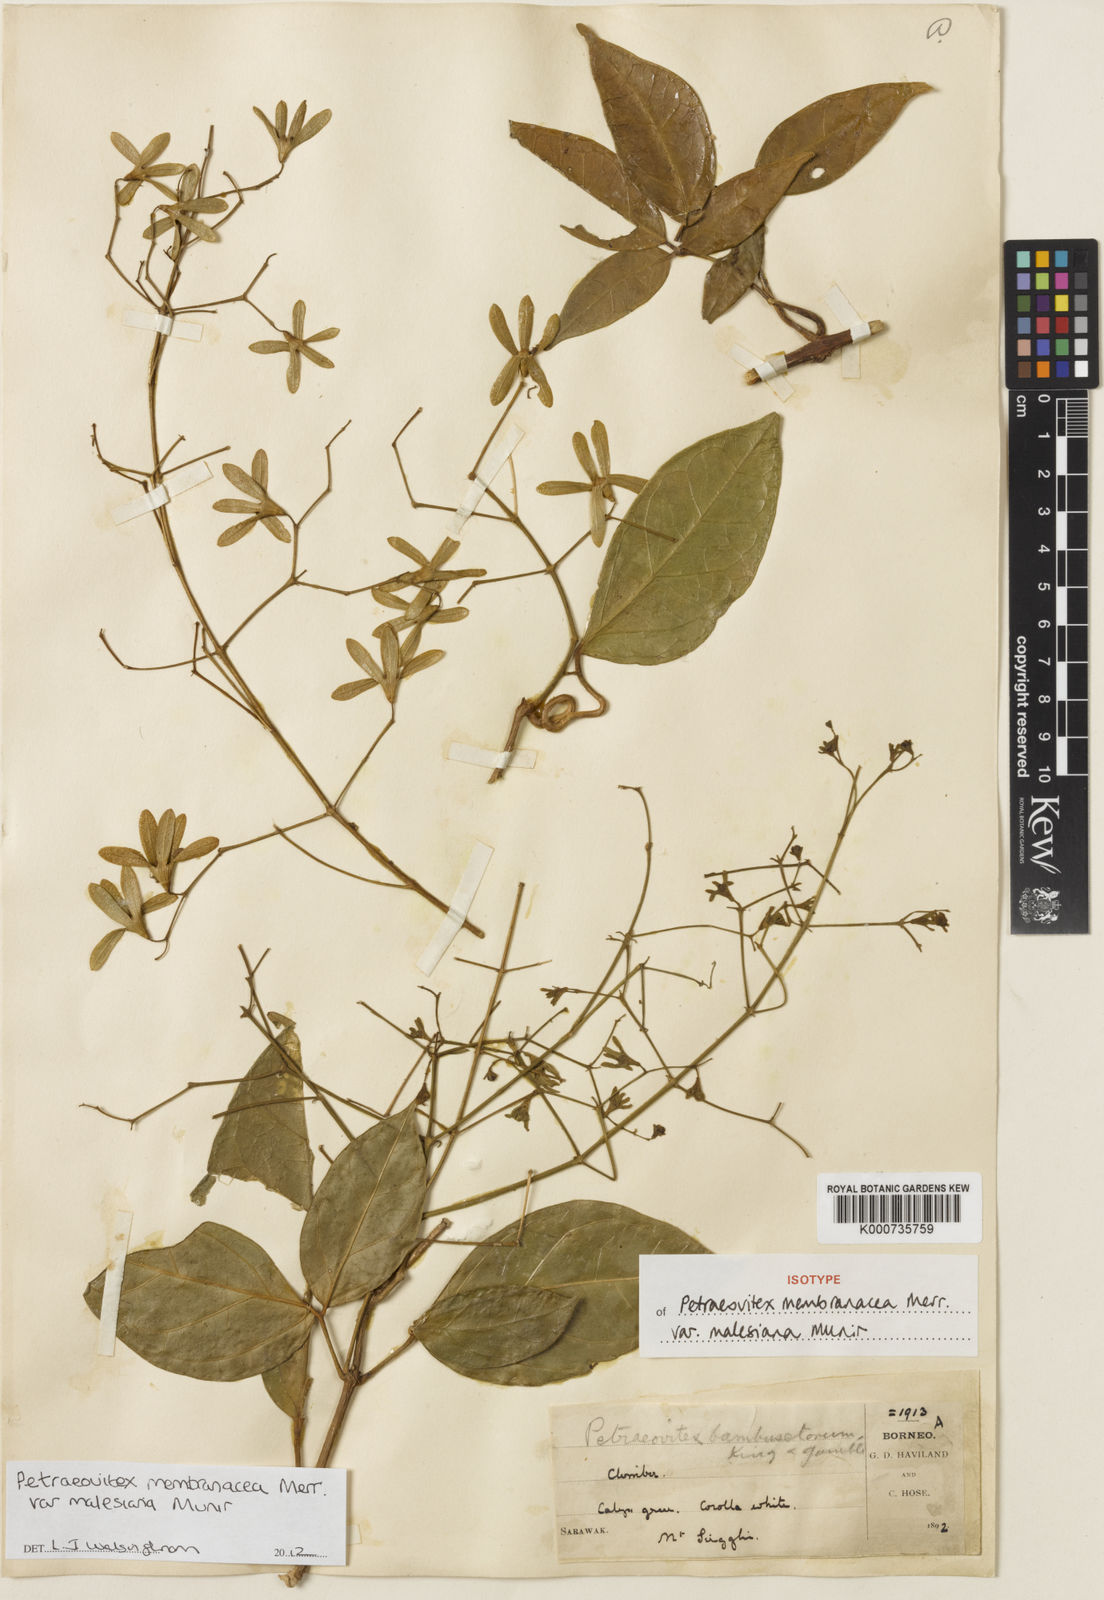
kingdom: Plantae
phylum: Tracheophyta
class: Magnoliopsida
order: Lamiales
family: Lamiaceae
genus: Petraeovitex
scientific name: Petraeovitex membranacea
